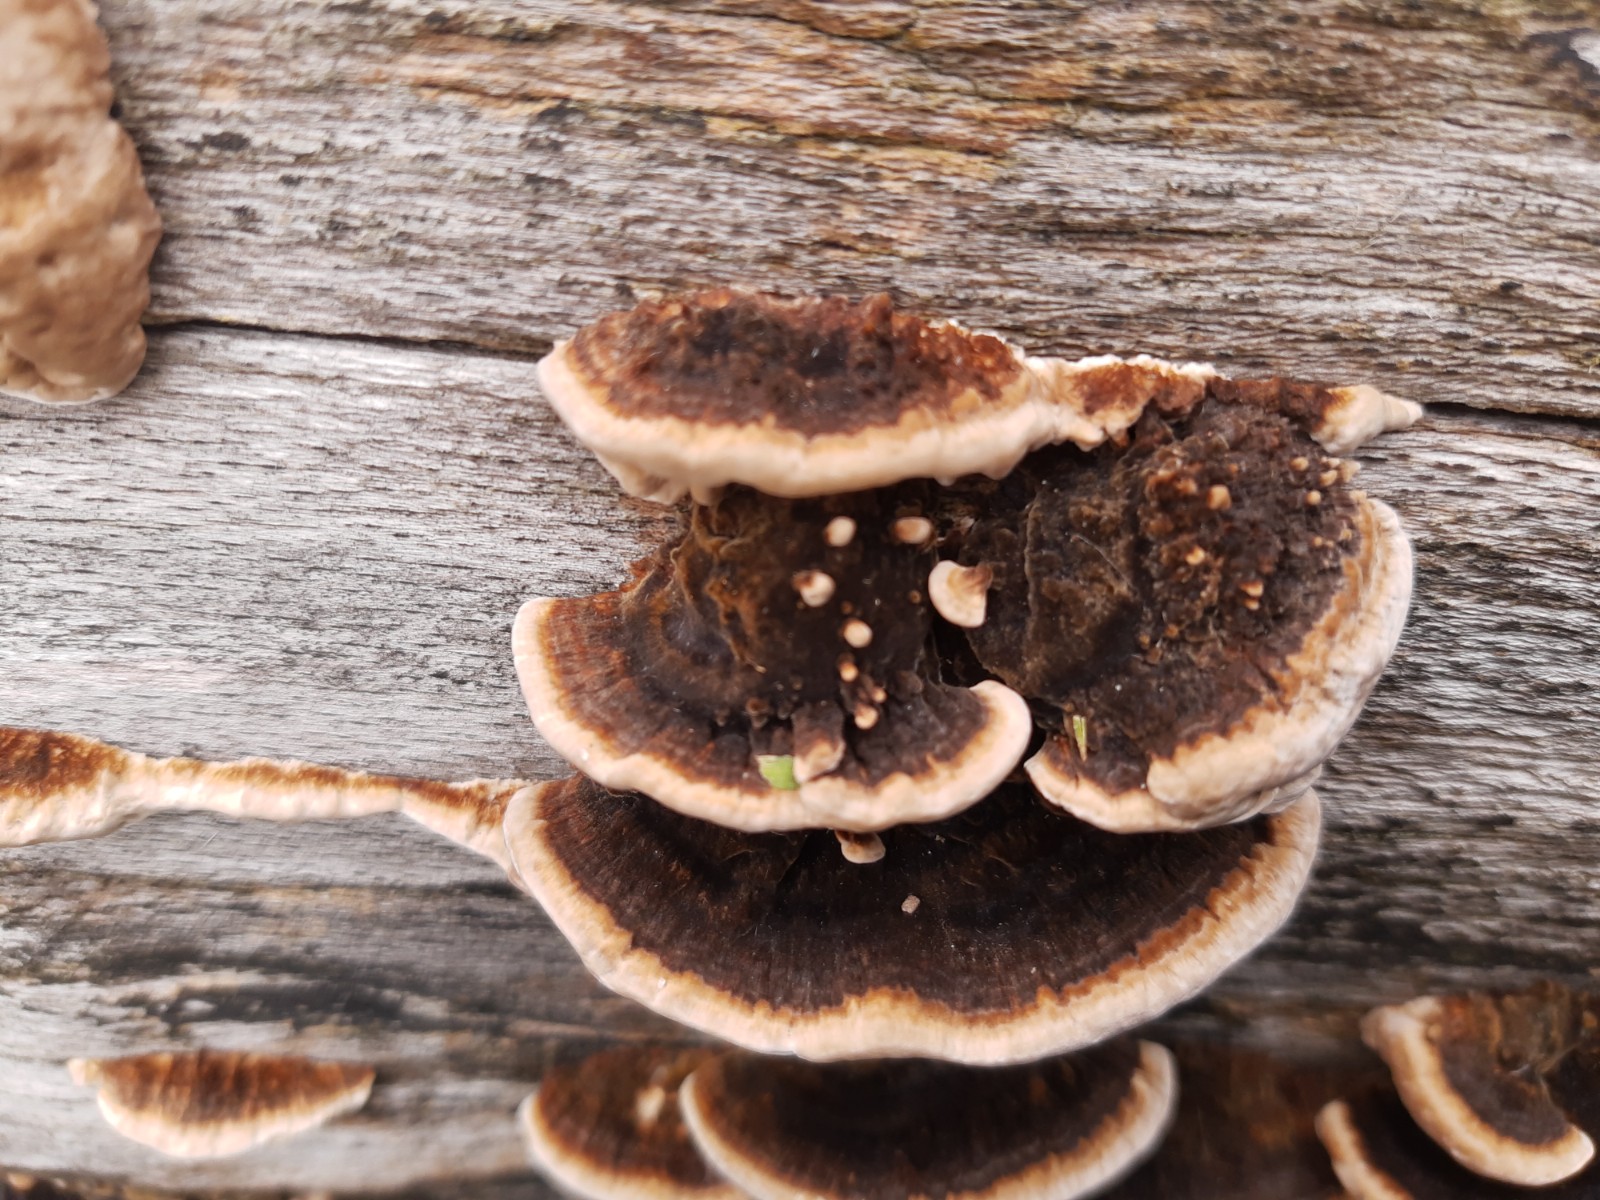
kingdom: Fungi
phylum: Basidiomycota
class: Agaricomycetes
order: Polyporales
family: Polyporaceae
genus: Trametes
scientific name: Trametes versicolor
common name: broget læderporesvamp
